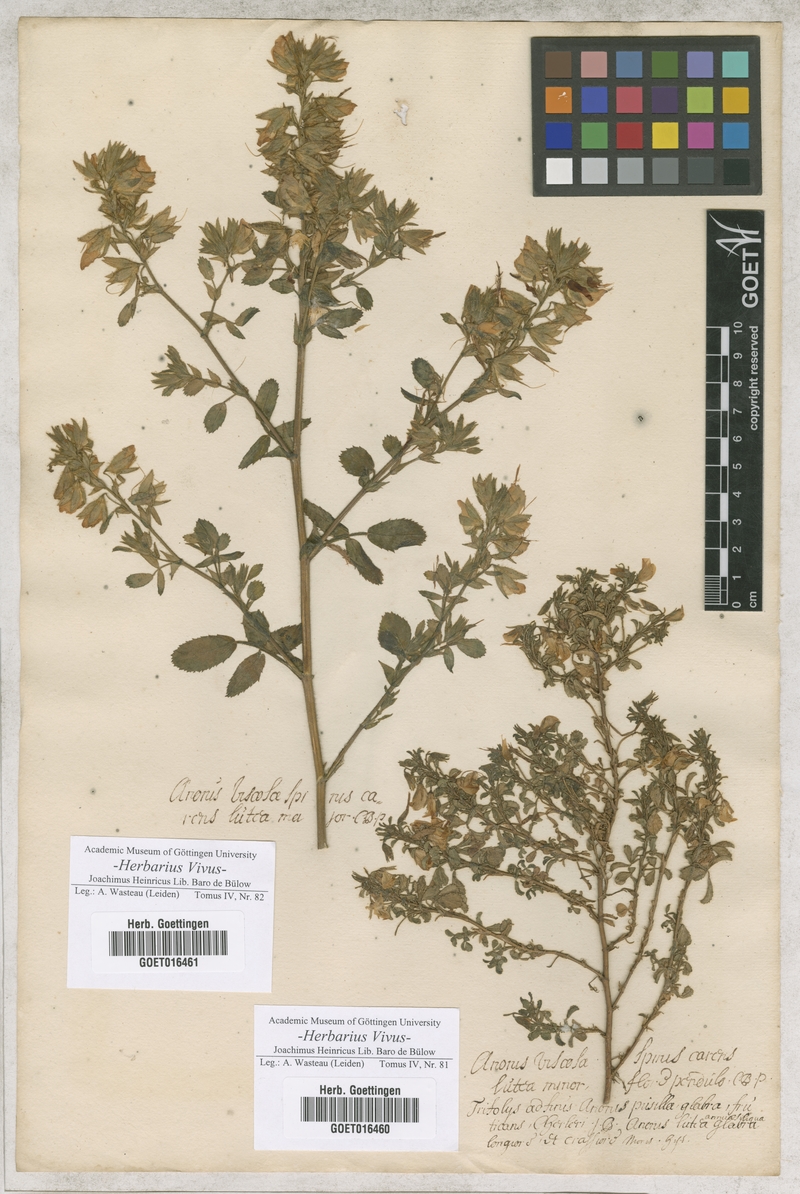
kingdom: Plantae
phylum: Tracheophyta
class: Magnoliopsida
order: Fabales
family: Fabaceae
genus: Ononis
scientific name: Ononis natrix
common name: Yellow restharrow
